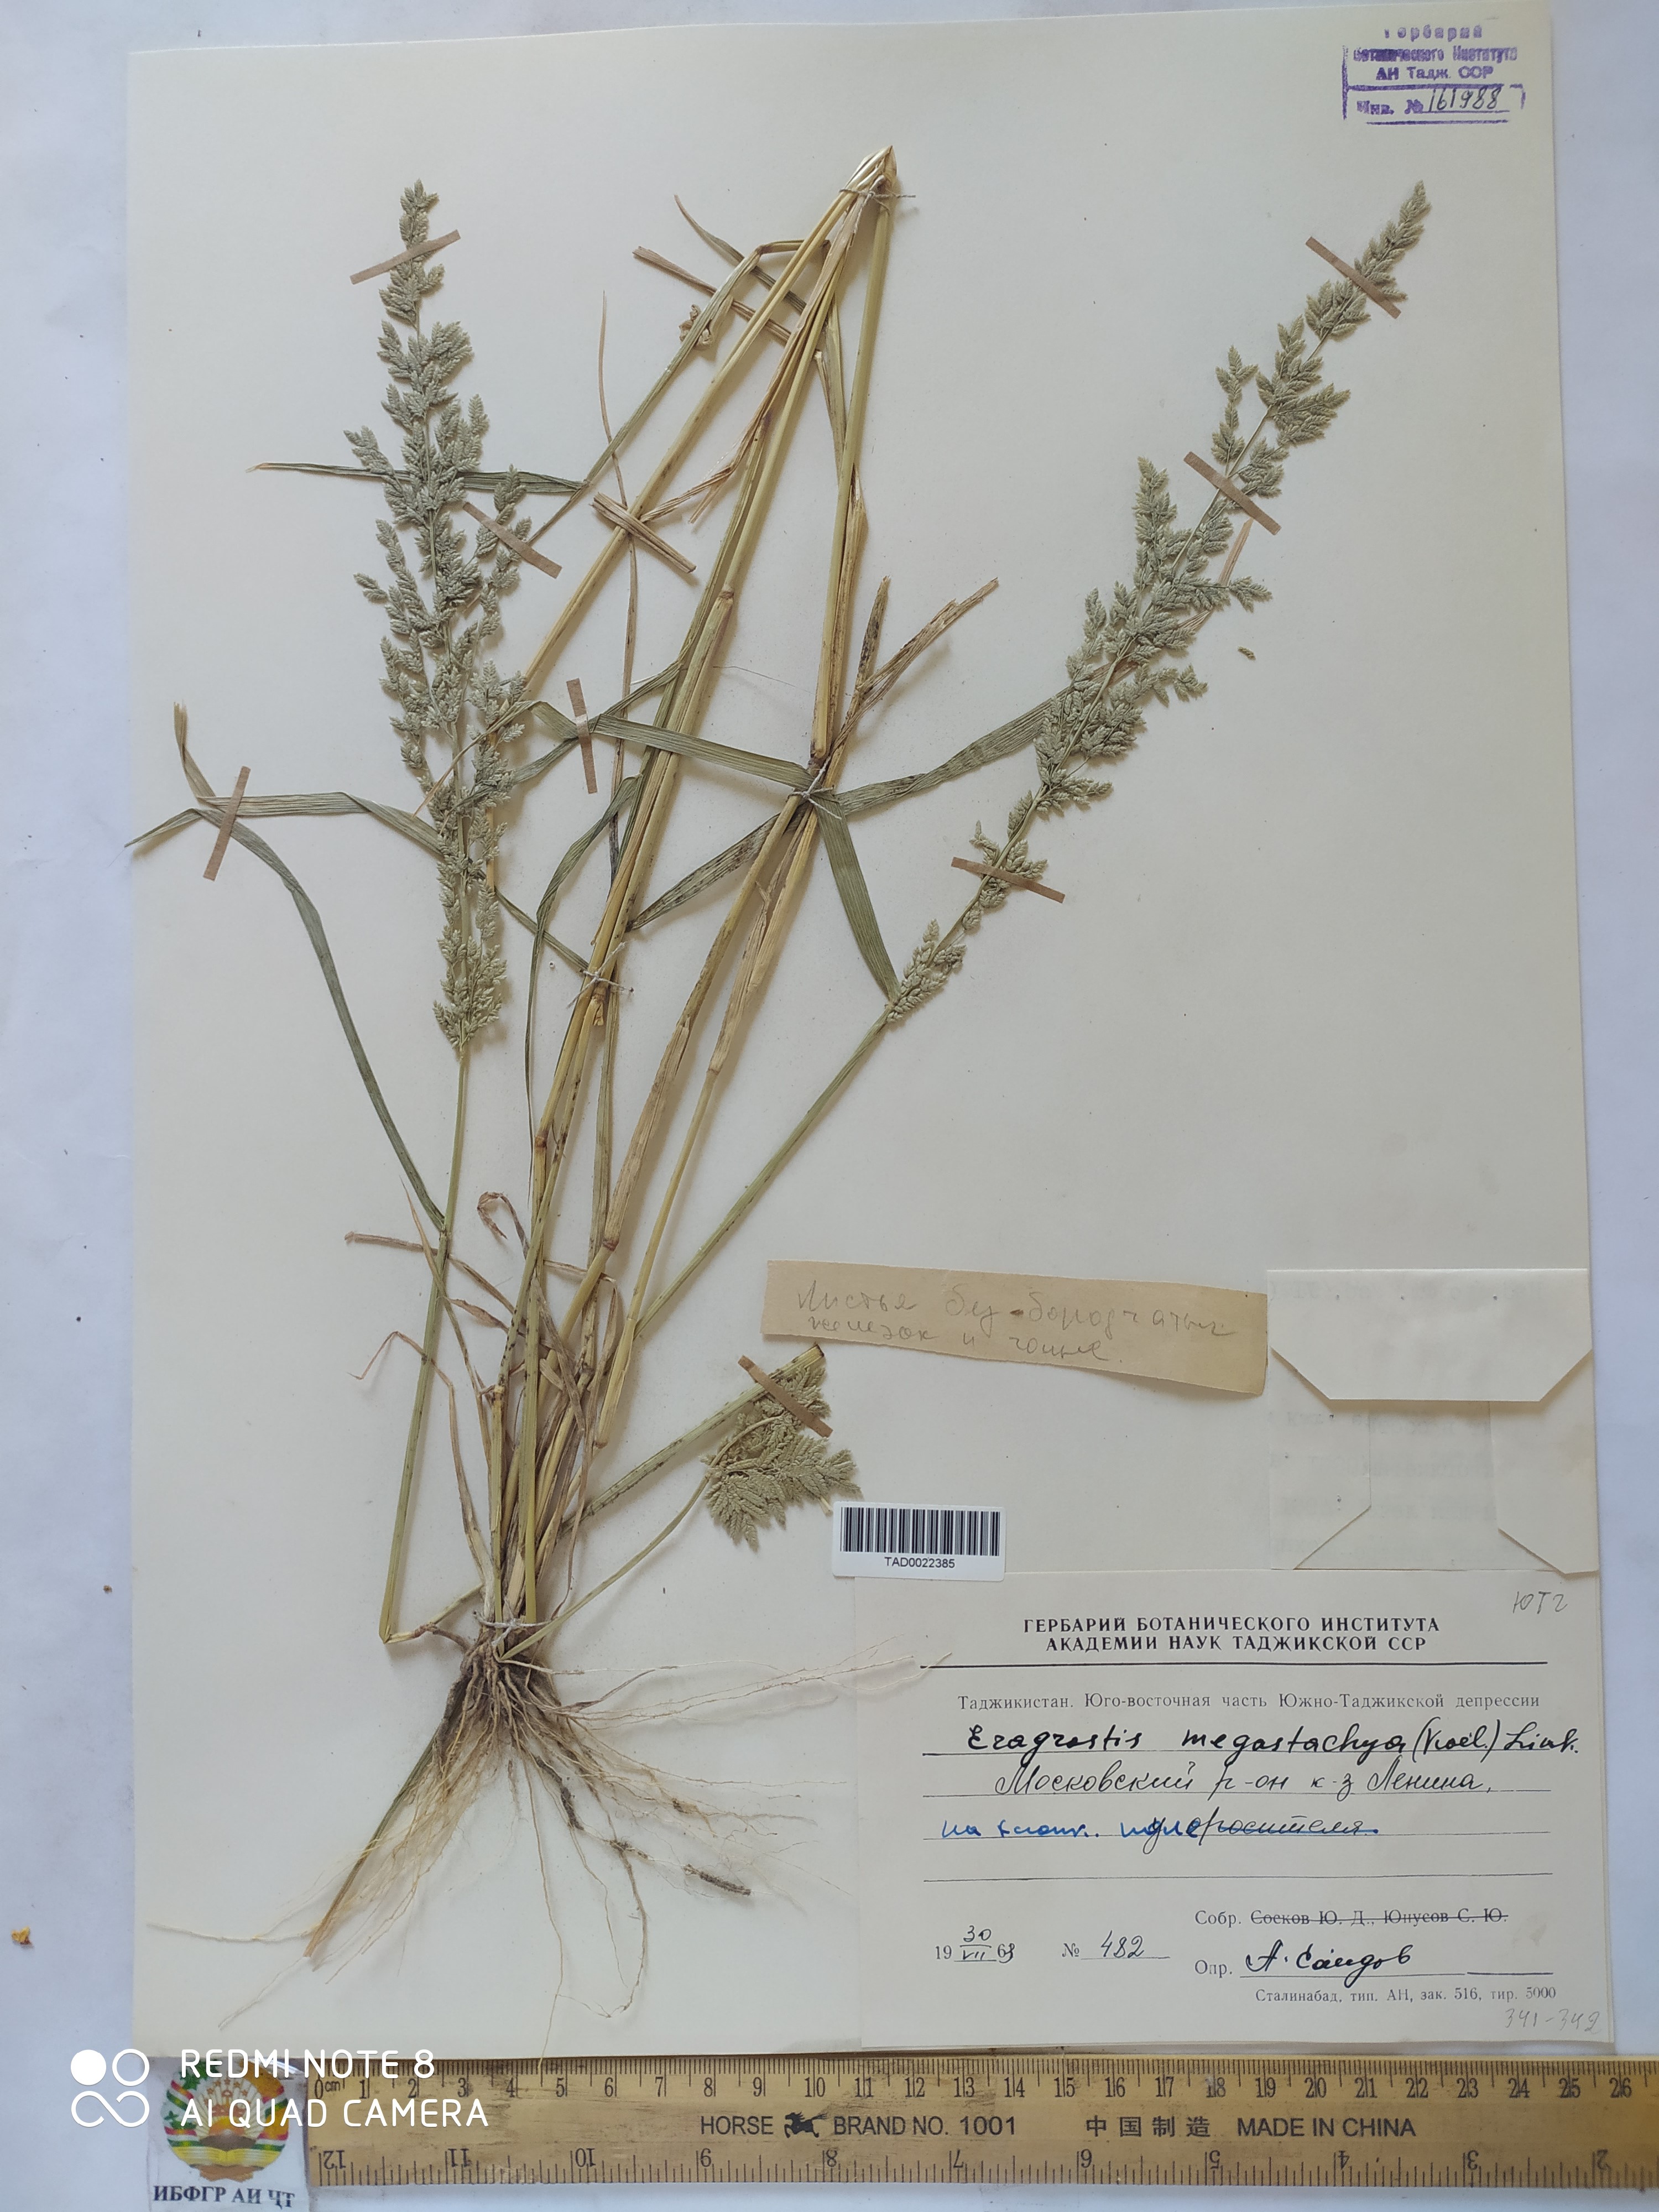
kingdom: Plantae
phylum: Tracheophyta
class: Liliopsida
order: Poales
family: Poaceae
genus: Eragrostis
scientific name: Eragrostis cilianensis
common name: Stinkgrass
